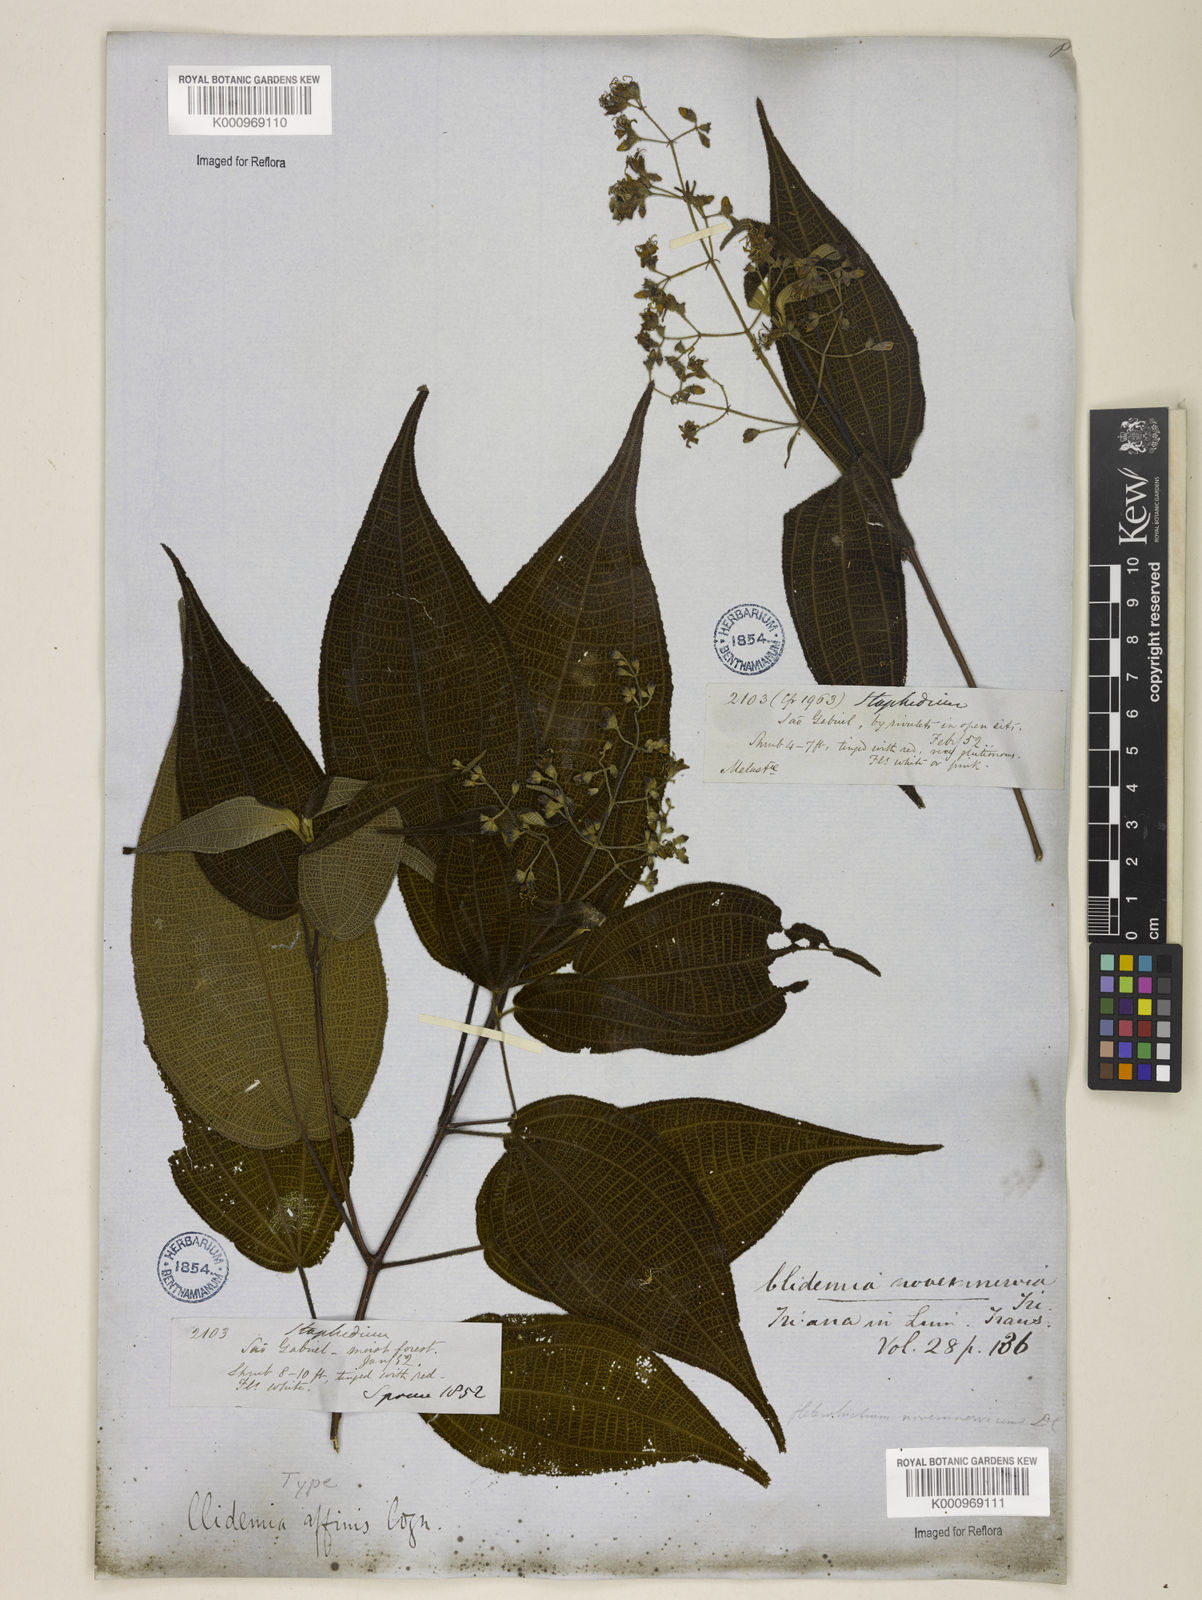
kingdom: Plantae
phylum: Tracheophyta
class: Magnoliopsida
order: Myrtales
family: Melastomataceae
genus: Miconia
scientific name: Miconia fenestrata
